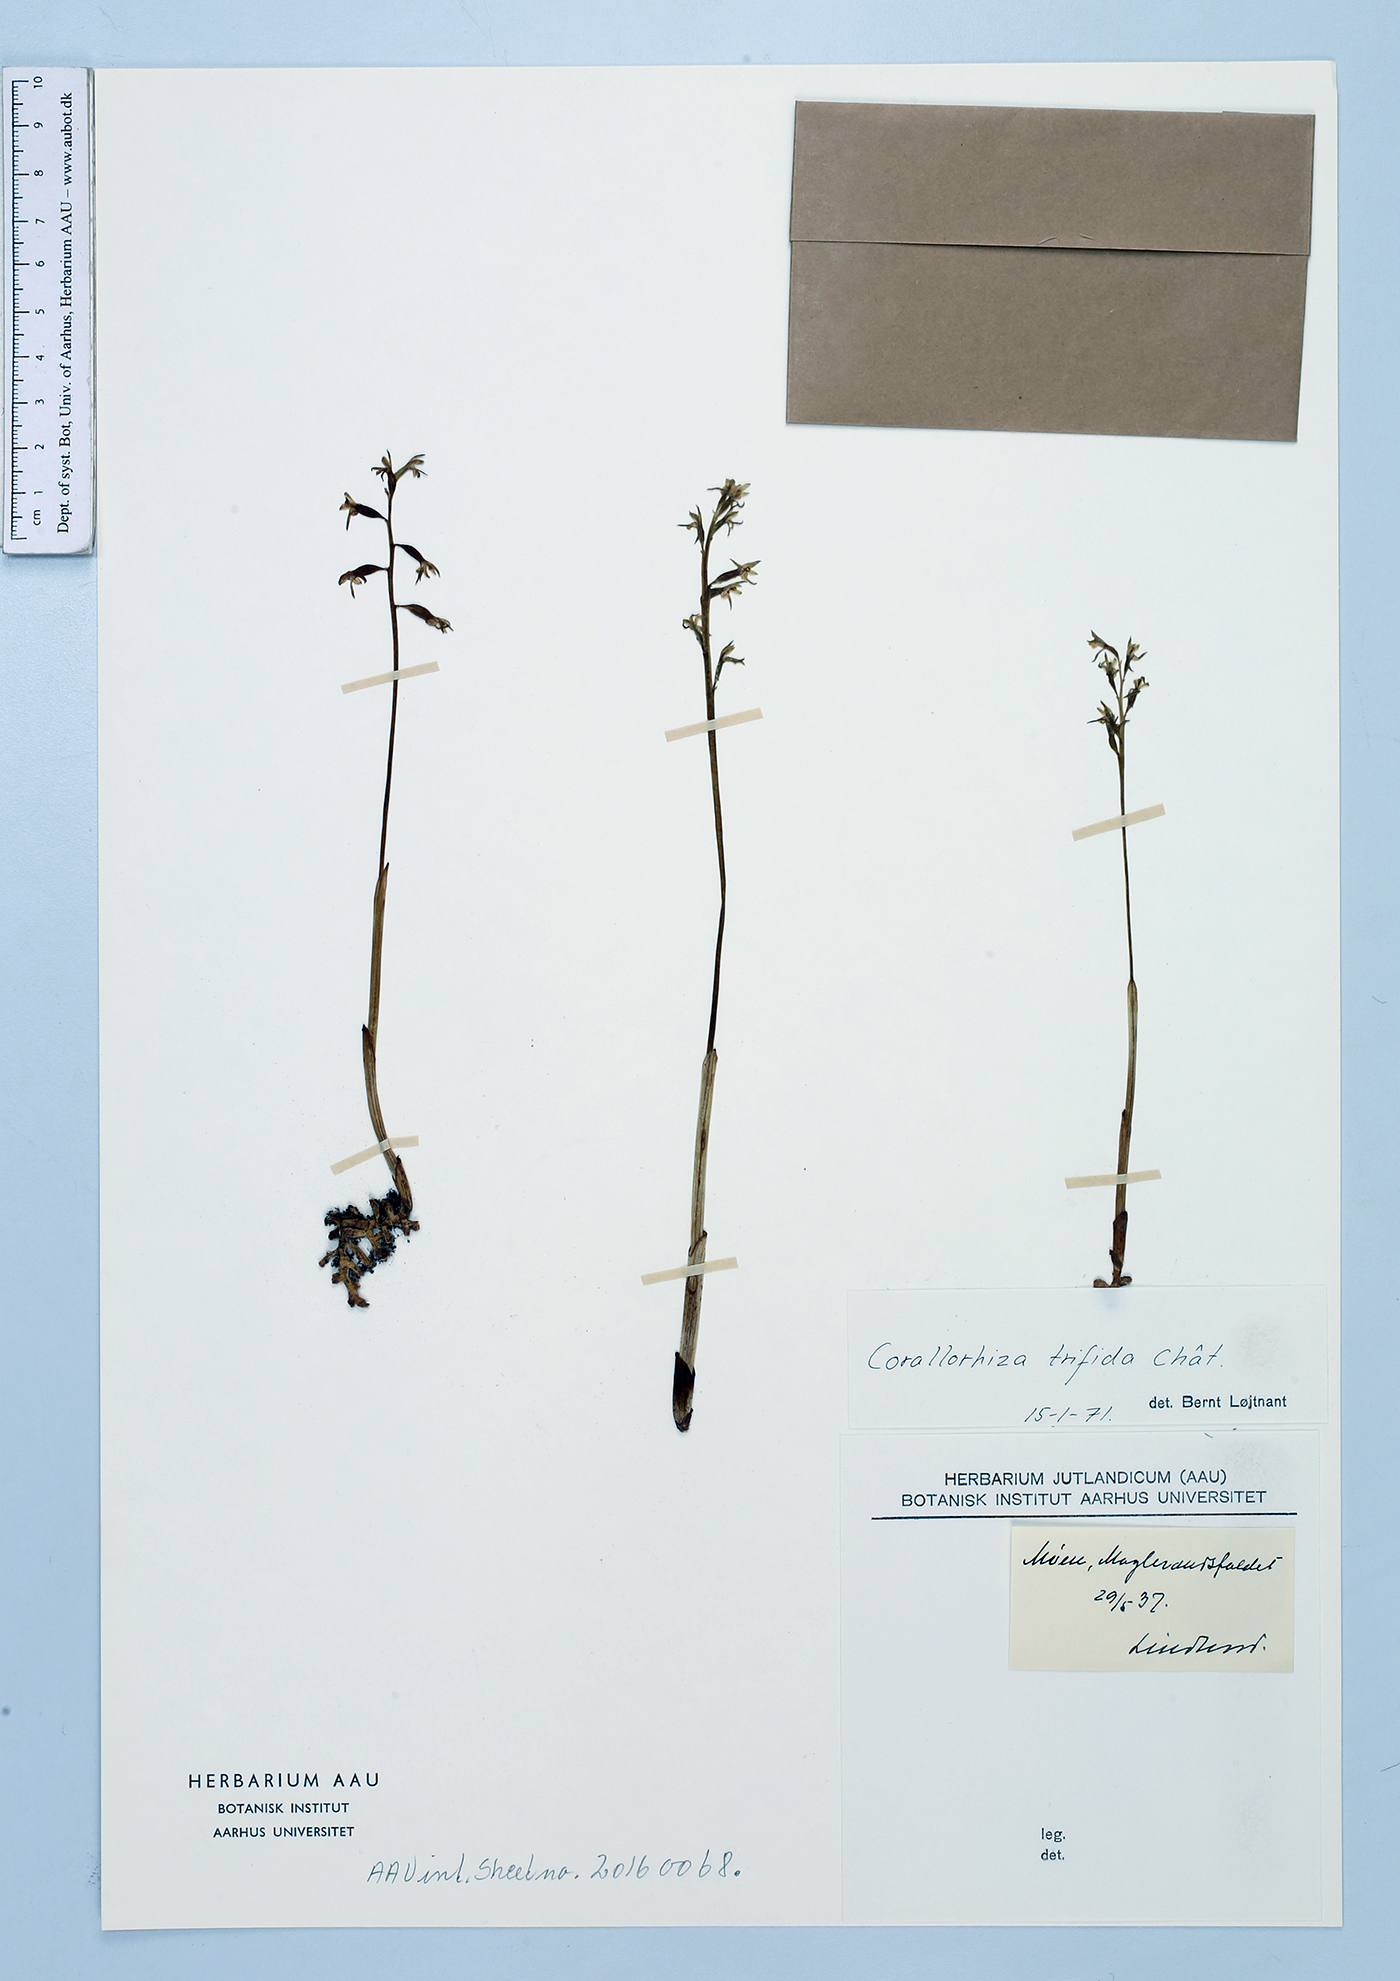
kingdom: Plantae
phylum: Tracheophyta
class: Liliopsida
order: Asparagales
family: Orchidaceae
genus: Corallorhiza
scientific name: Corallorhiza trifida
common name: Yellow coralroot
